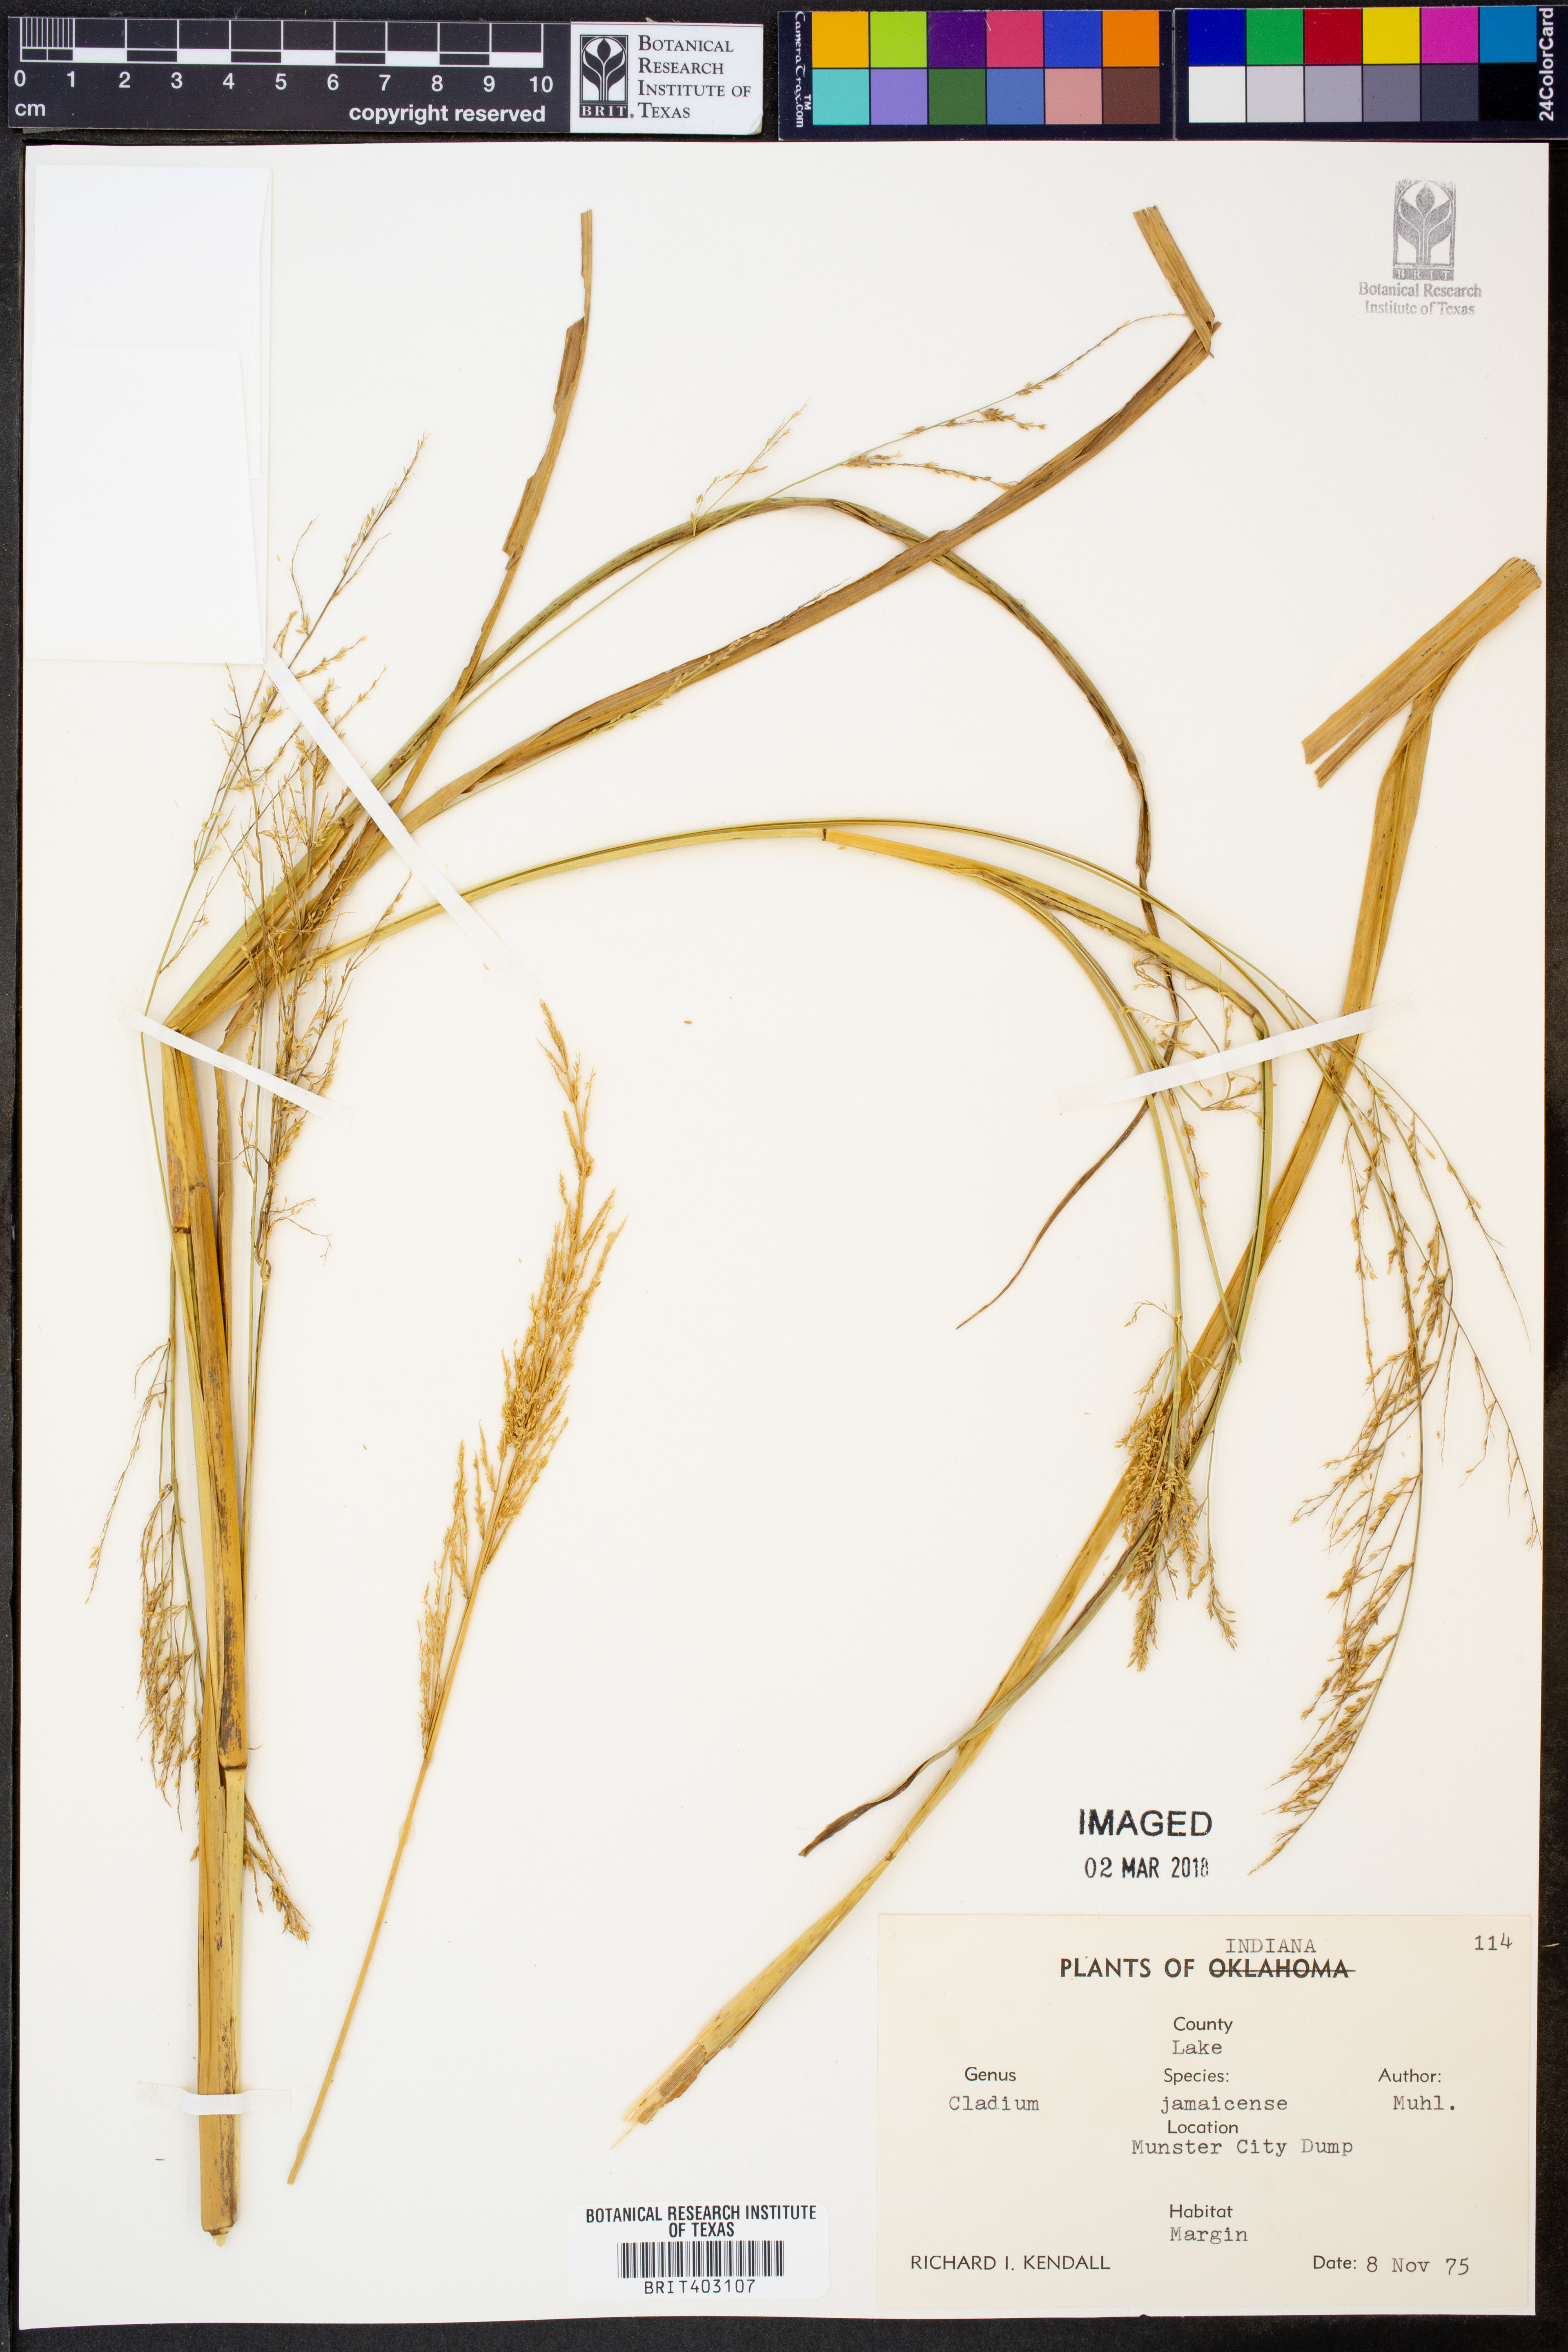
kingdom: Plantae
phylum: Tracheophyta
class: Liliopsida
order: Poales
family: Cyperaceae
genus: Cladium
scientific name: Cladium mariscus
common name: Great fen-sedge
